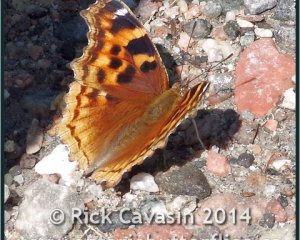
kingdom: Animalia
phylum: Arthropoda
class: Insecta
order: Lepidoptera
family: Nymphalidae
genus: Polygonia
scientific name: Polygonia vaualbum
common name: Compton Tortoiseshell
